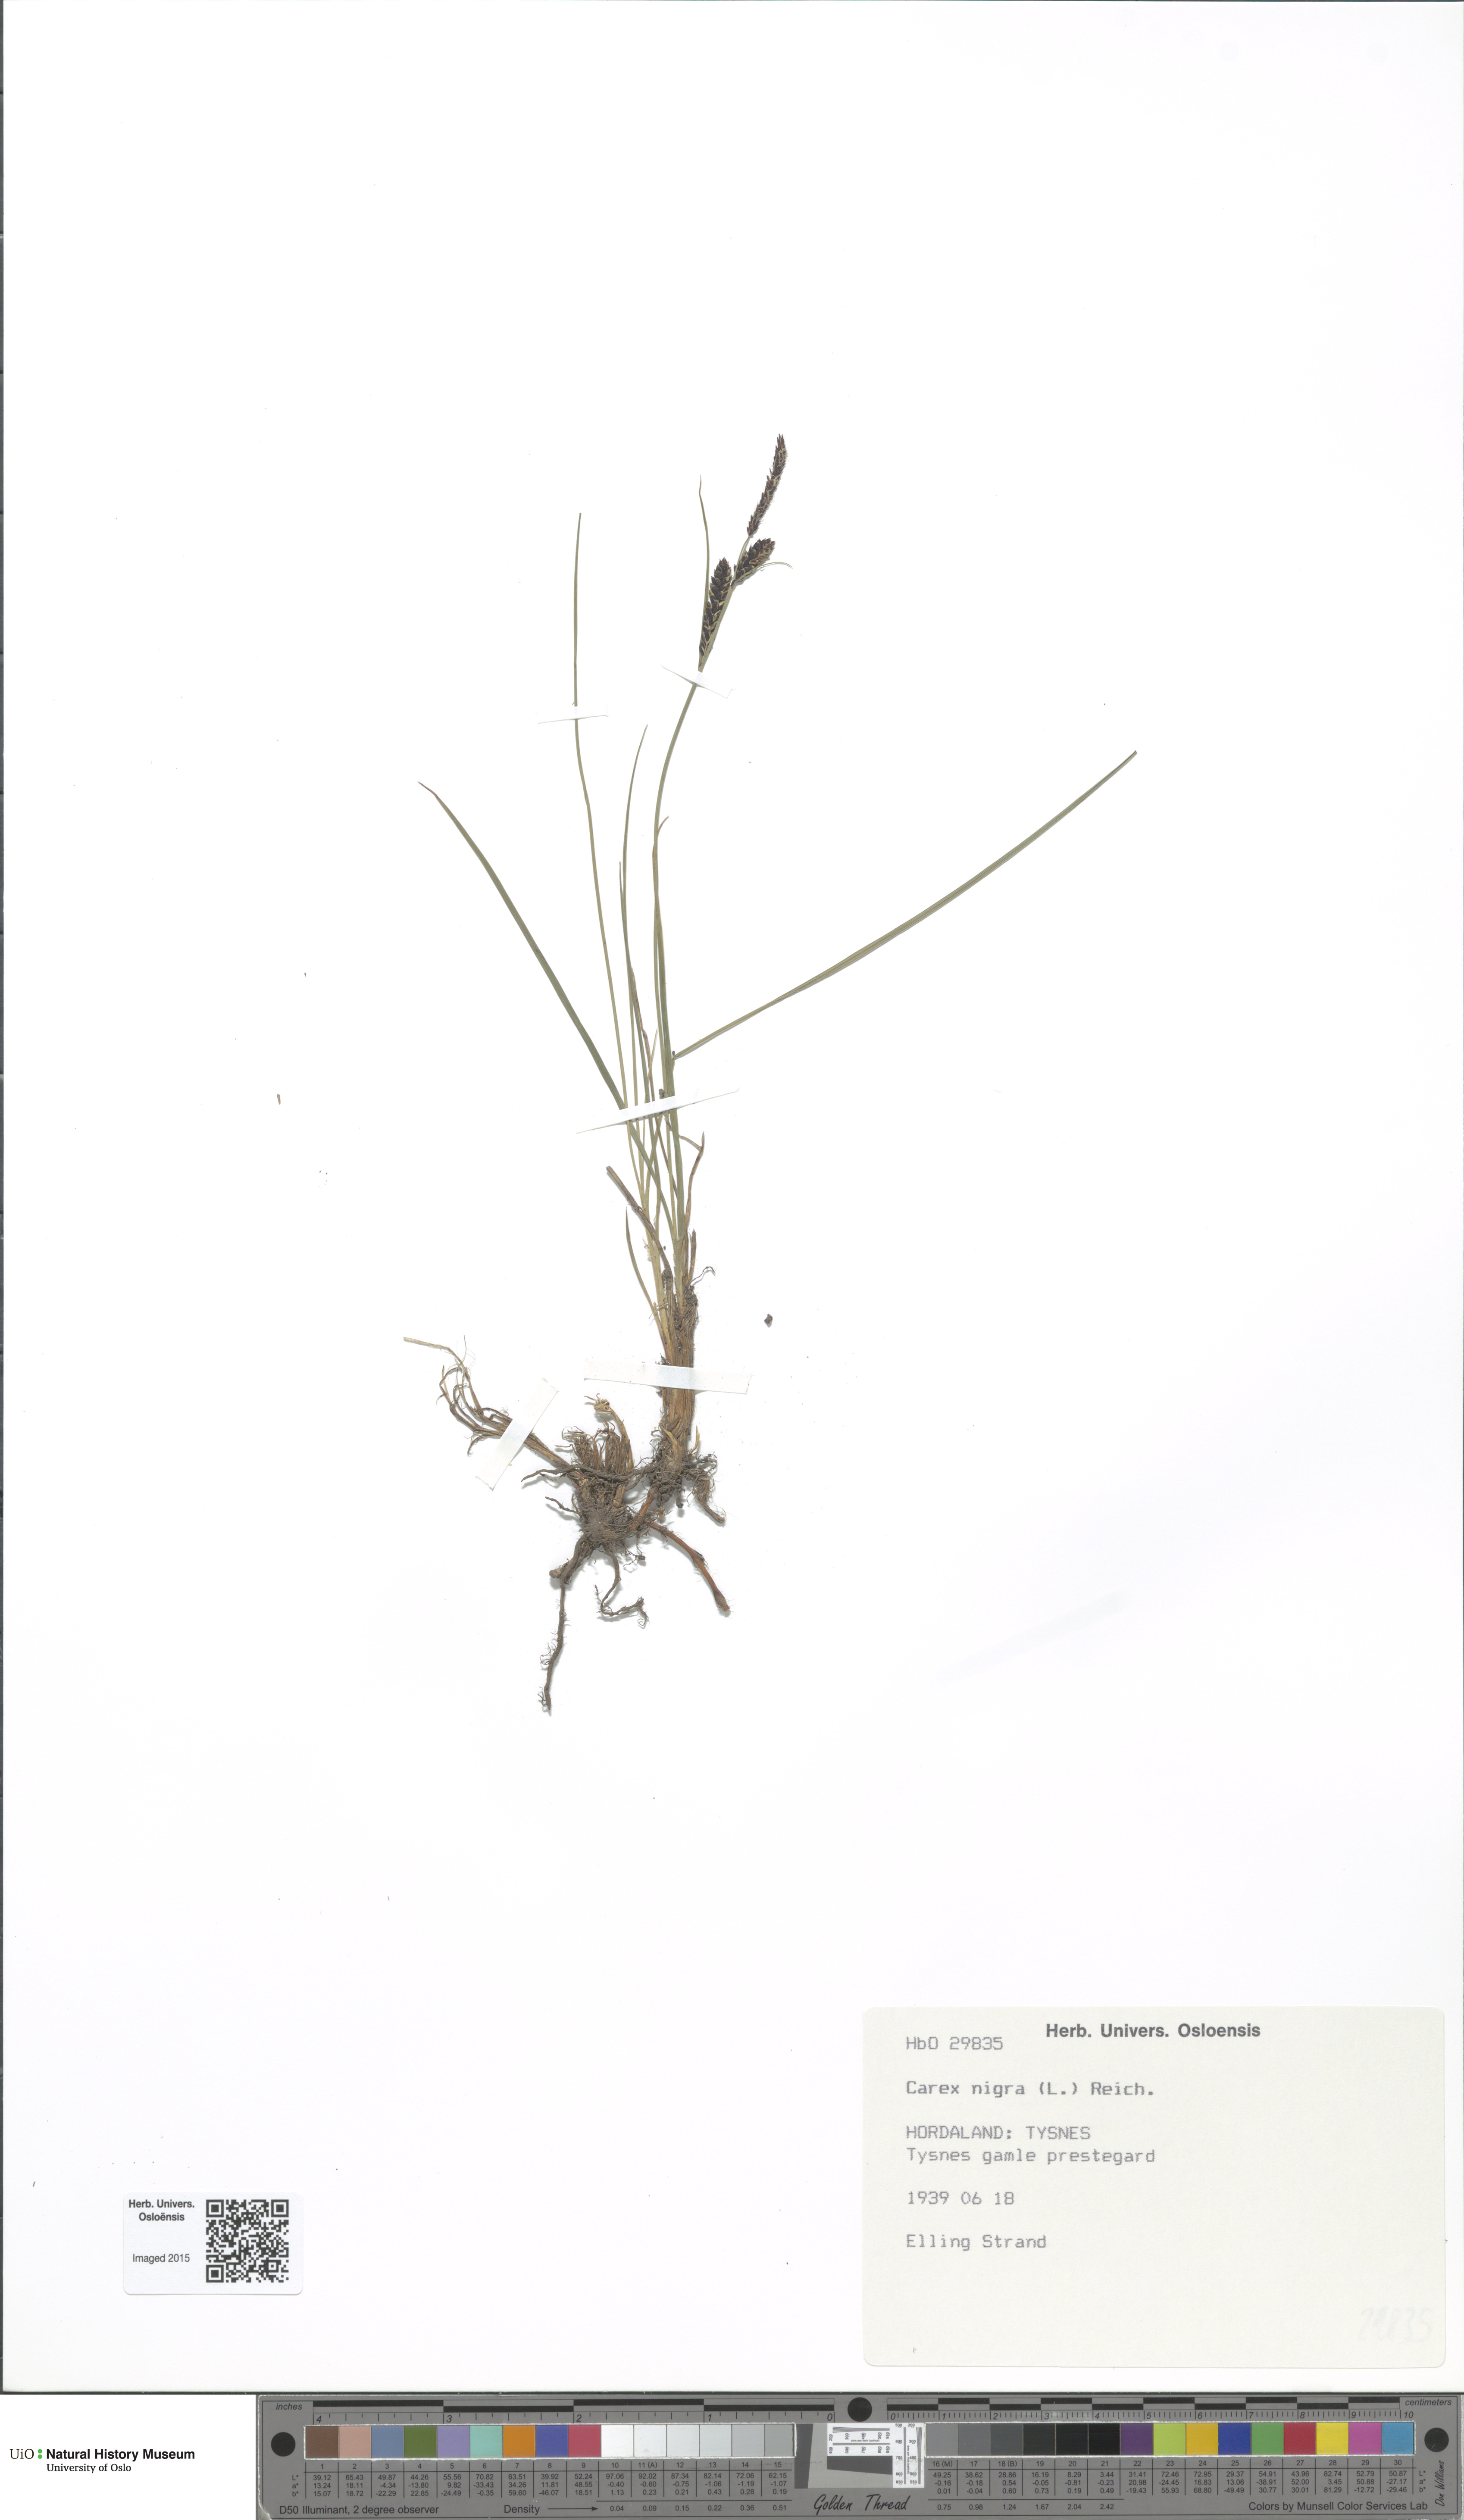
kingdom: Plantae
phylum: Tracheophyta
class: Liliopsida
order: Poales
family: Cyperaceae
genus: Carex
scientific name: Carex nigra
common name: Common sedge
